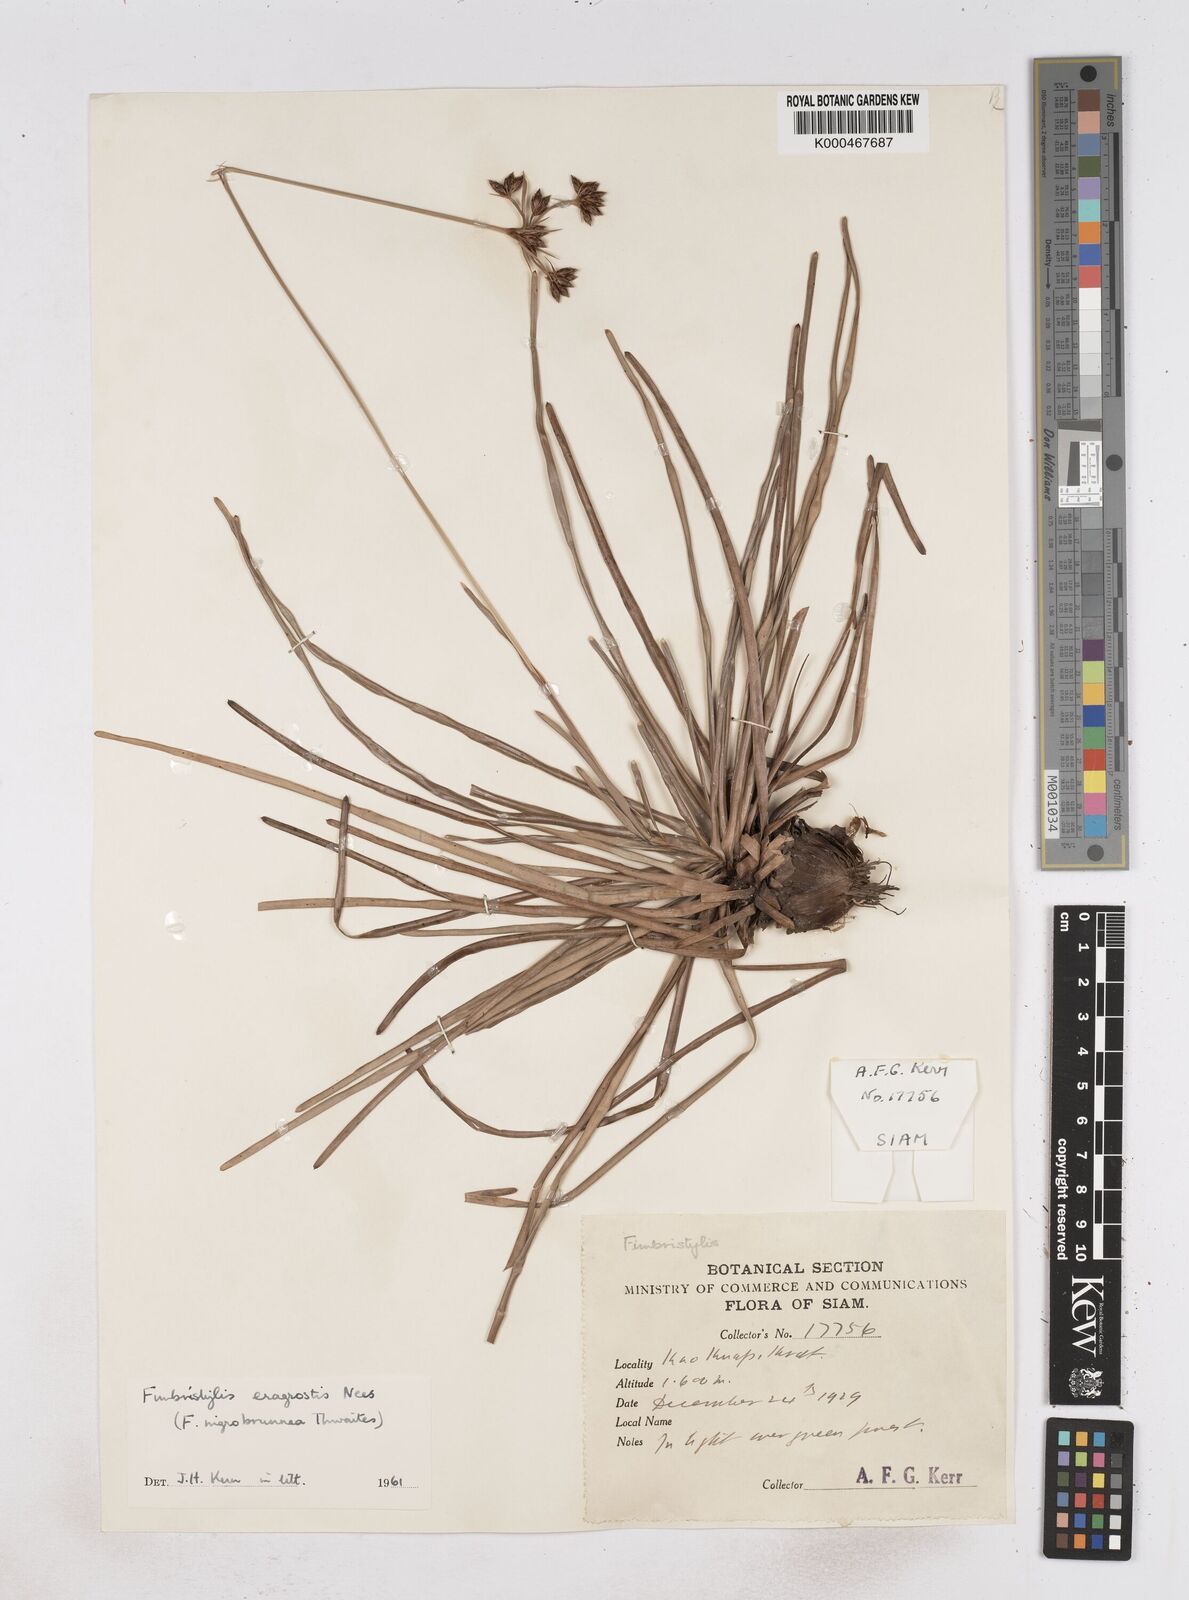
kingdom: Plantae
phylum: Tracheophyta
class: Liliopsida
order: Poales
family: Cyperaceae
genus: Fimbristylis
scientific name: Fimbristylis eragrostis
